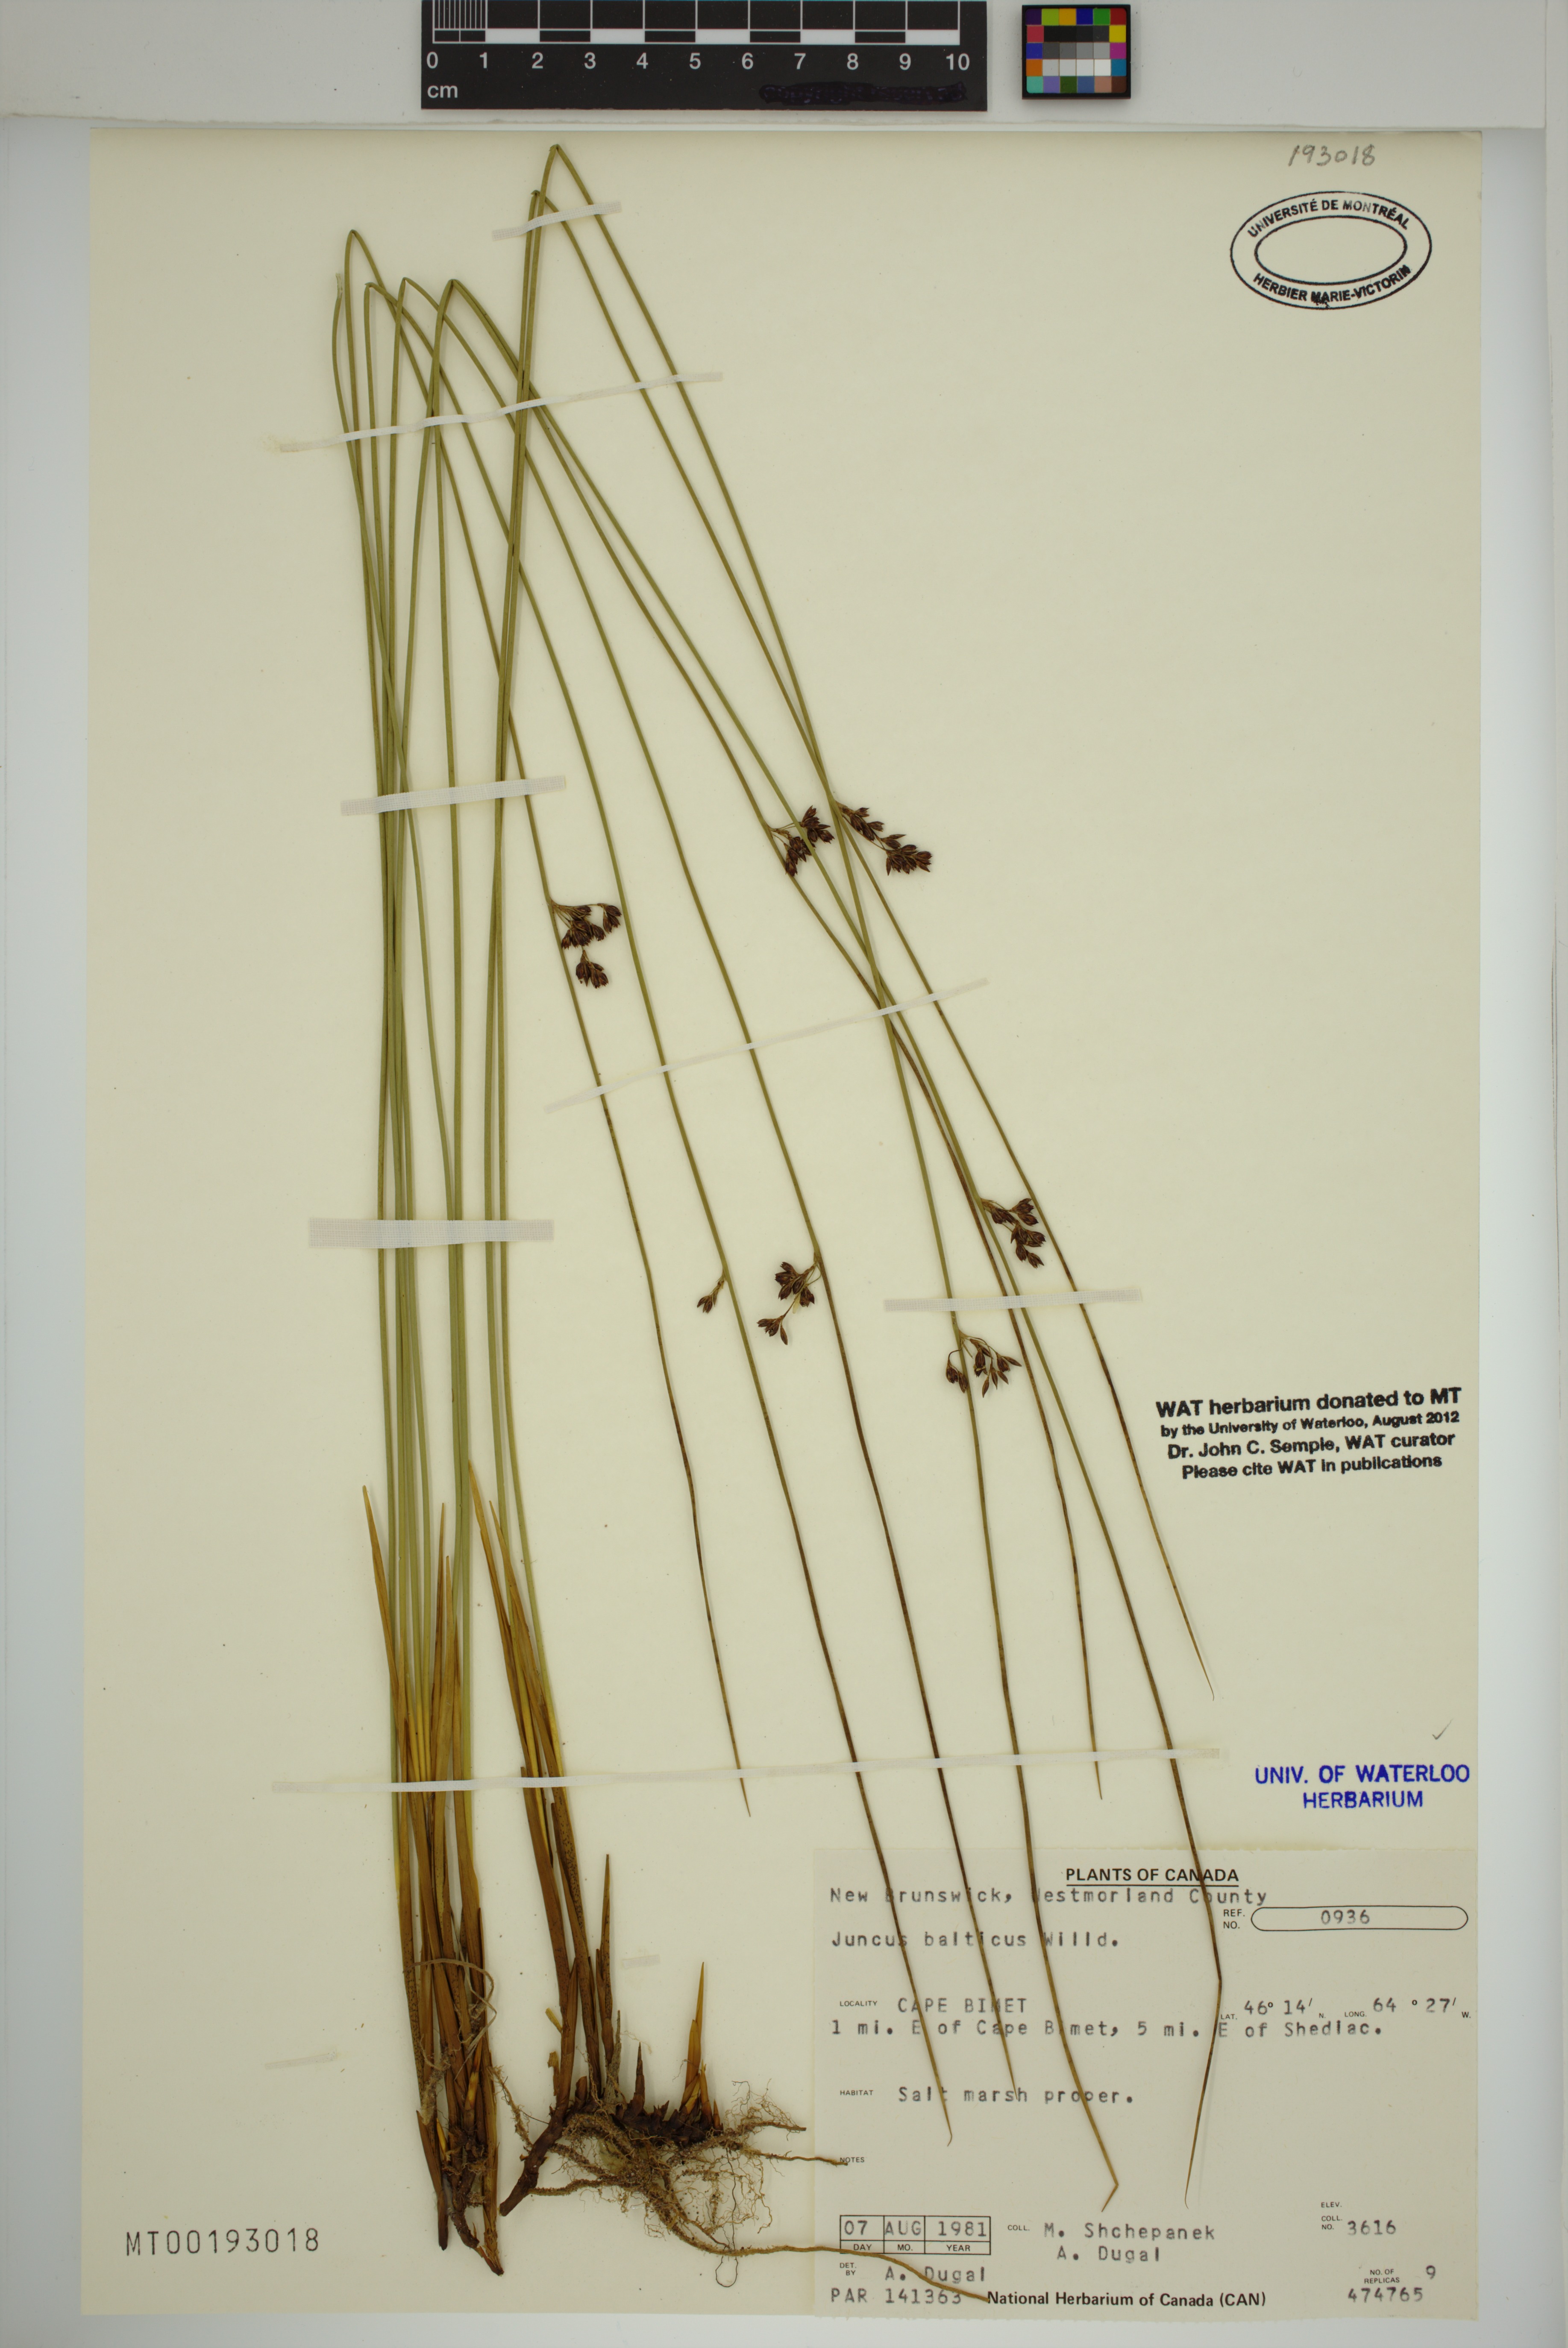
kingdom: Plantae
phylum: Tracheophyta
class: Liliopsida
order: Poales
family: Juncaceae
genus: Juncus
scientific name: Juncus balticus
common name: Baltic rush
